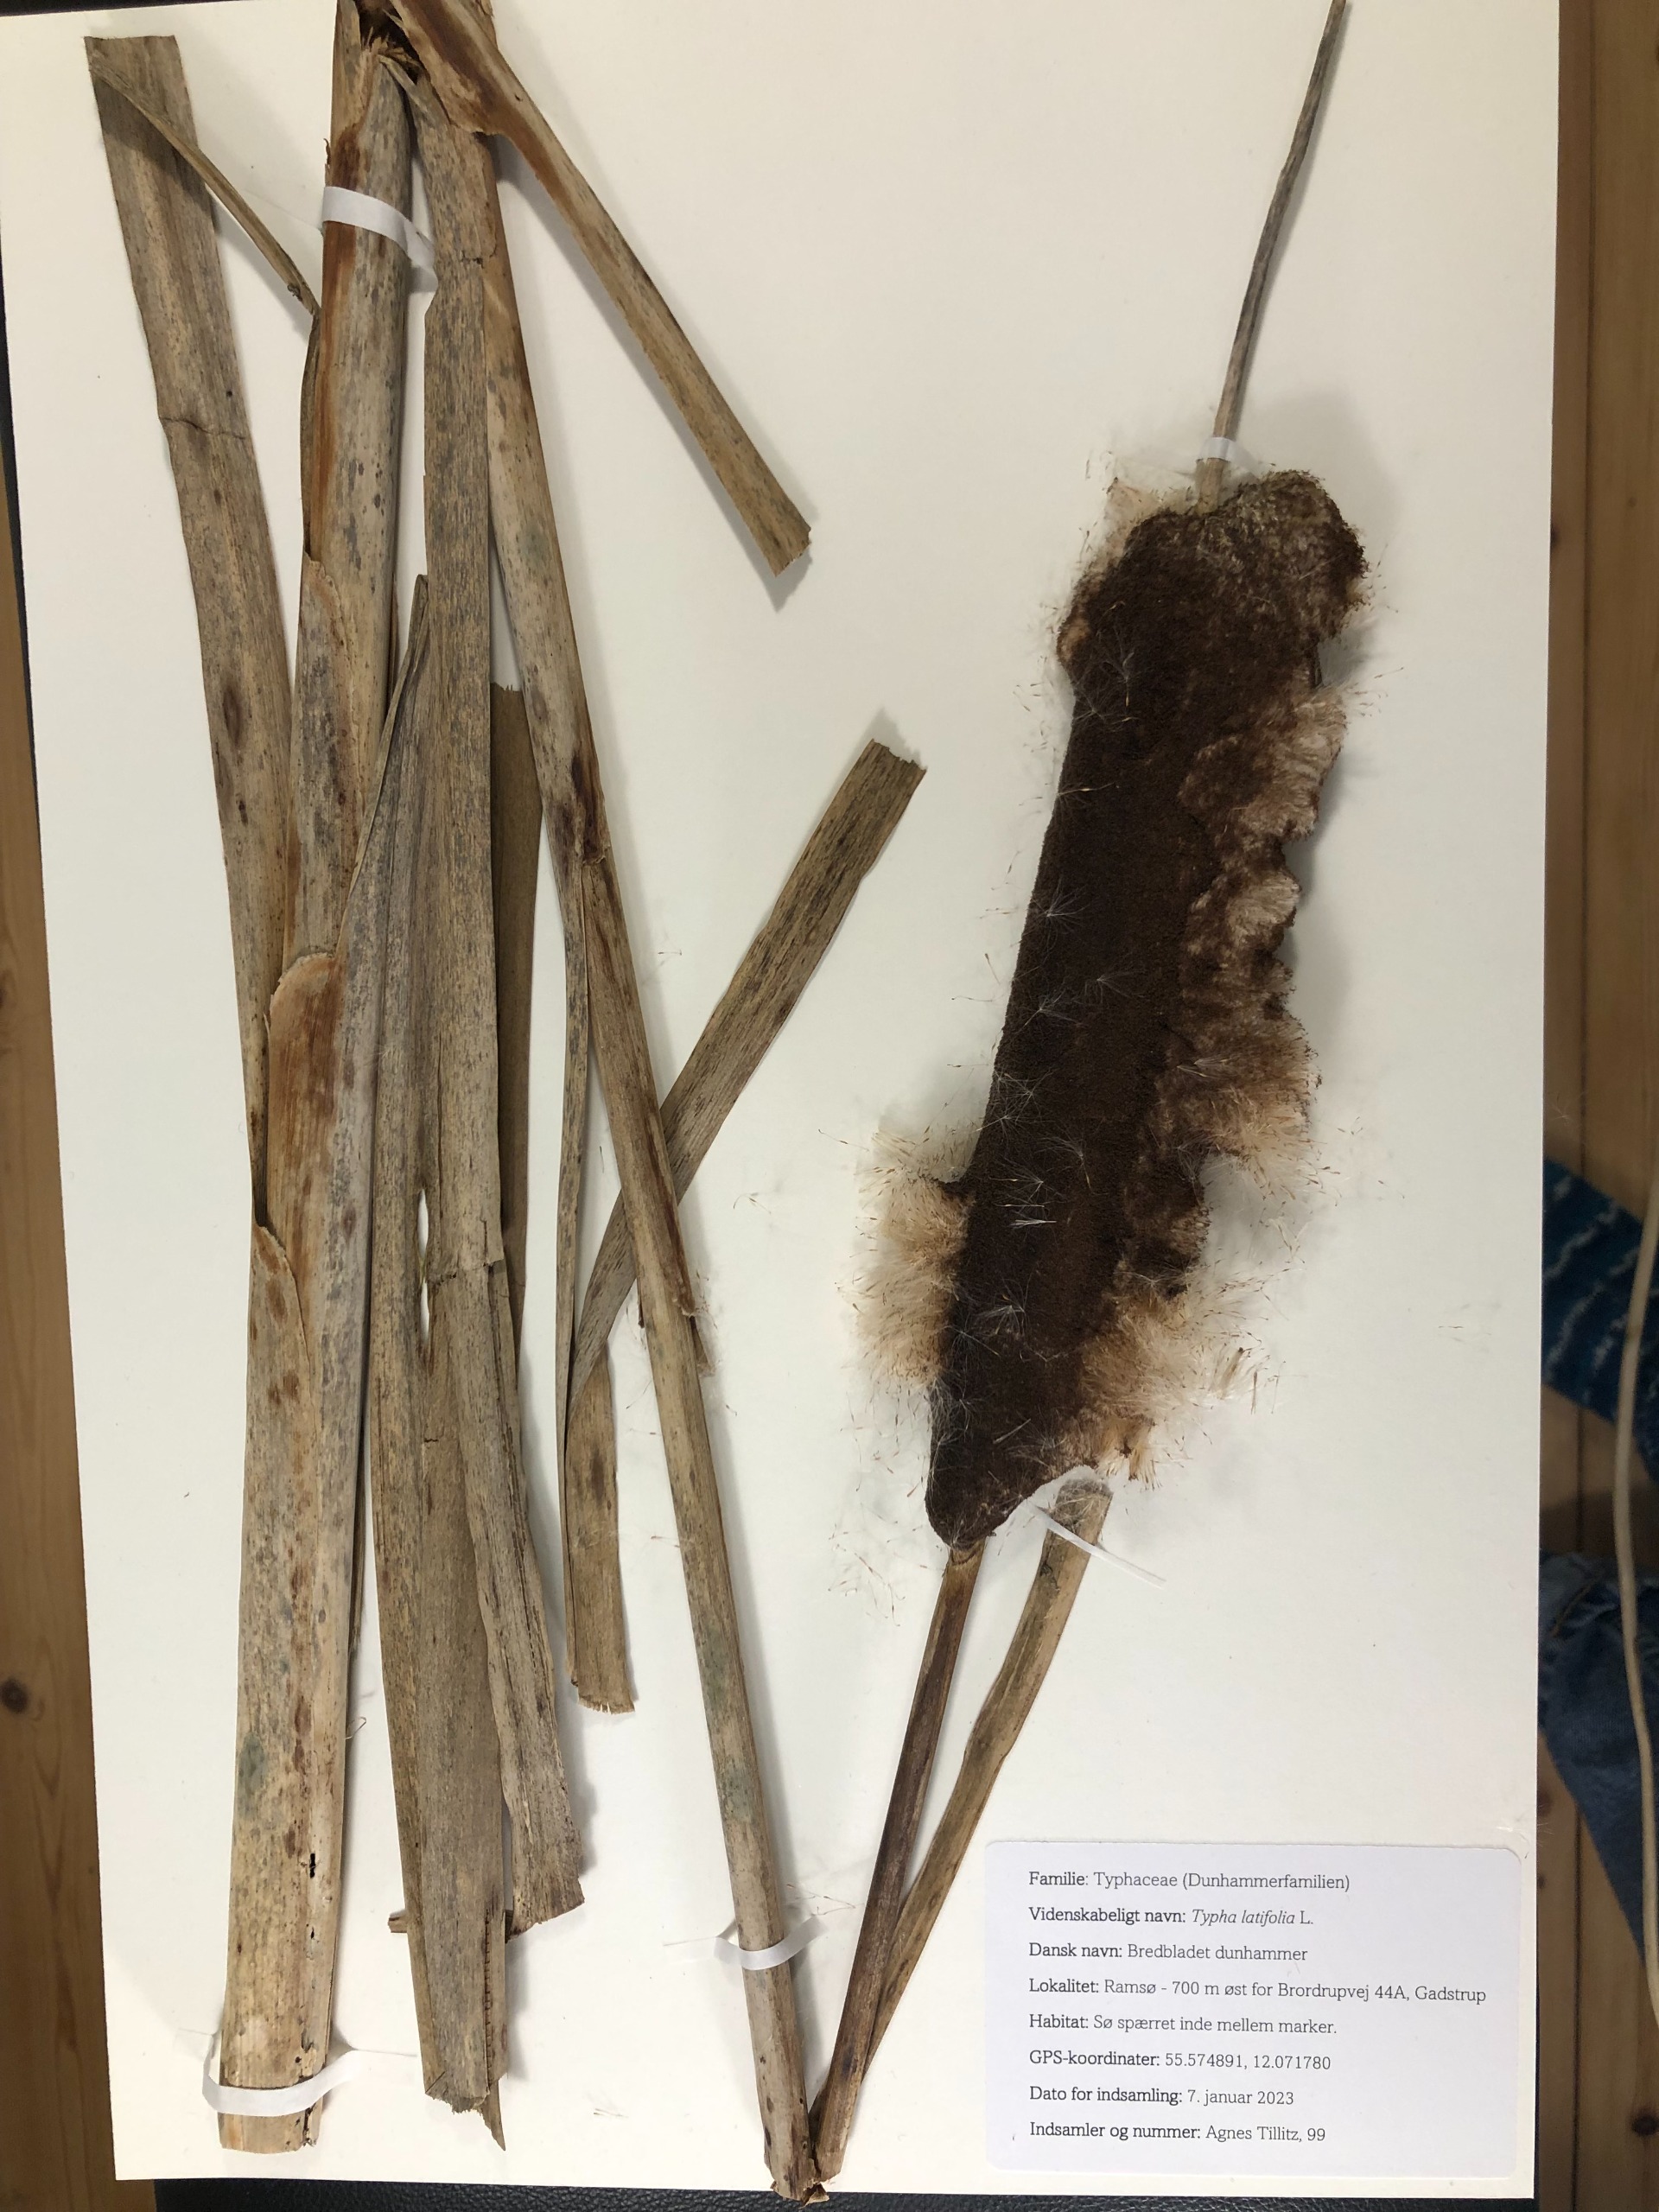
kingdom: Plantae
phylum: Tracheophyta
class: Liliopsida
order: Poales
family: Typhaceae
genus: Typha
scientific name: Typha latifolia
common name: Bredbladet dunhammer
